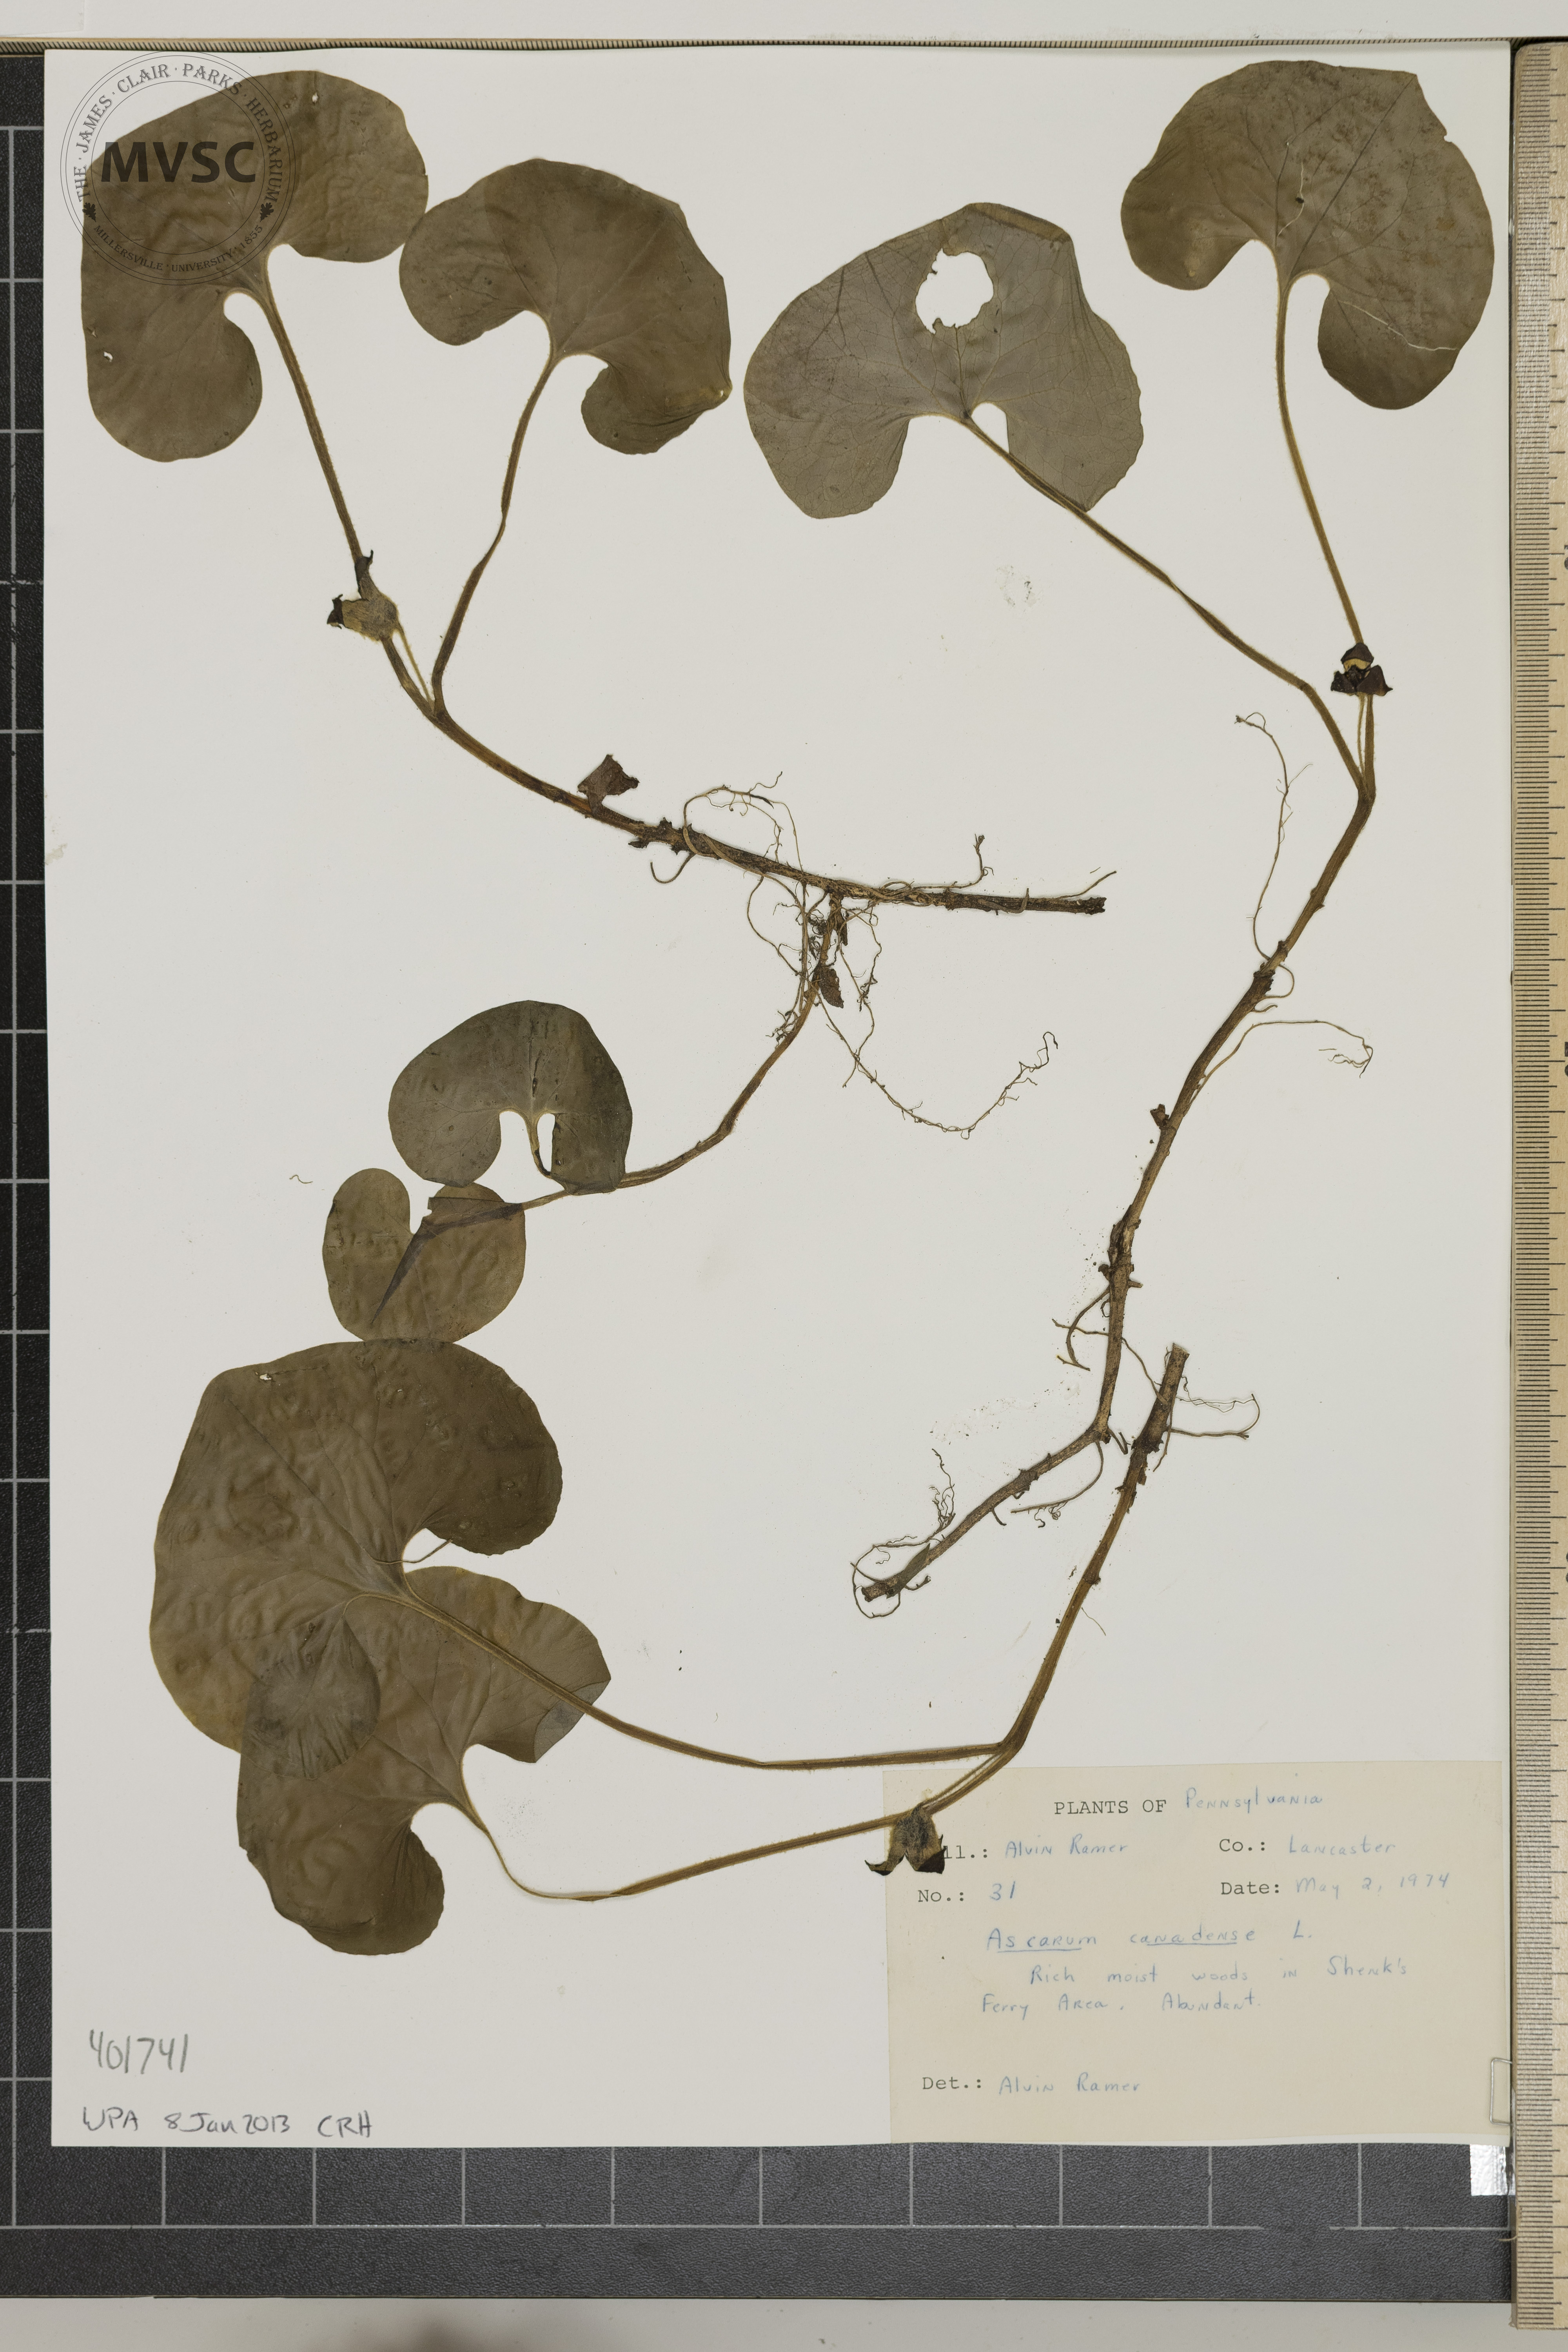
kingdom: Plantae
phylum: Tracheophyta
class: Magnoliopsida
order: Piperales
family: Aristolochiaceae
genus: Asarum
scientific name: Asarum canadense
